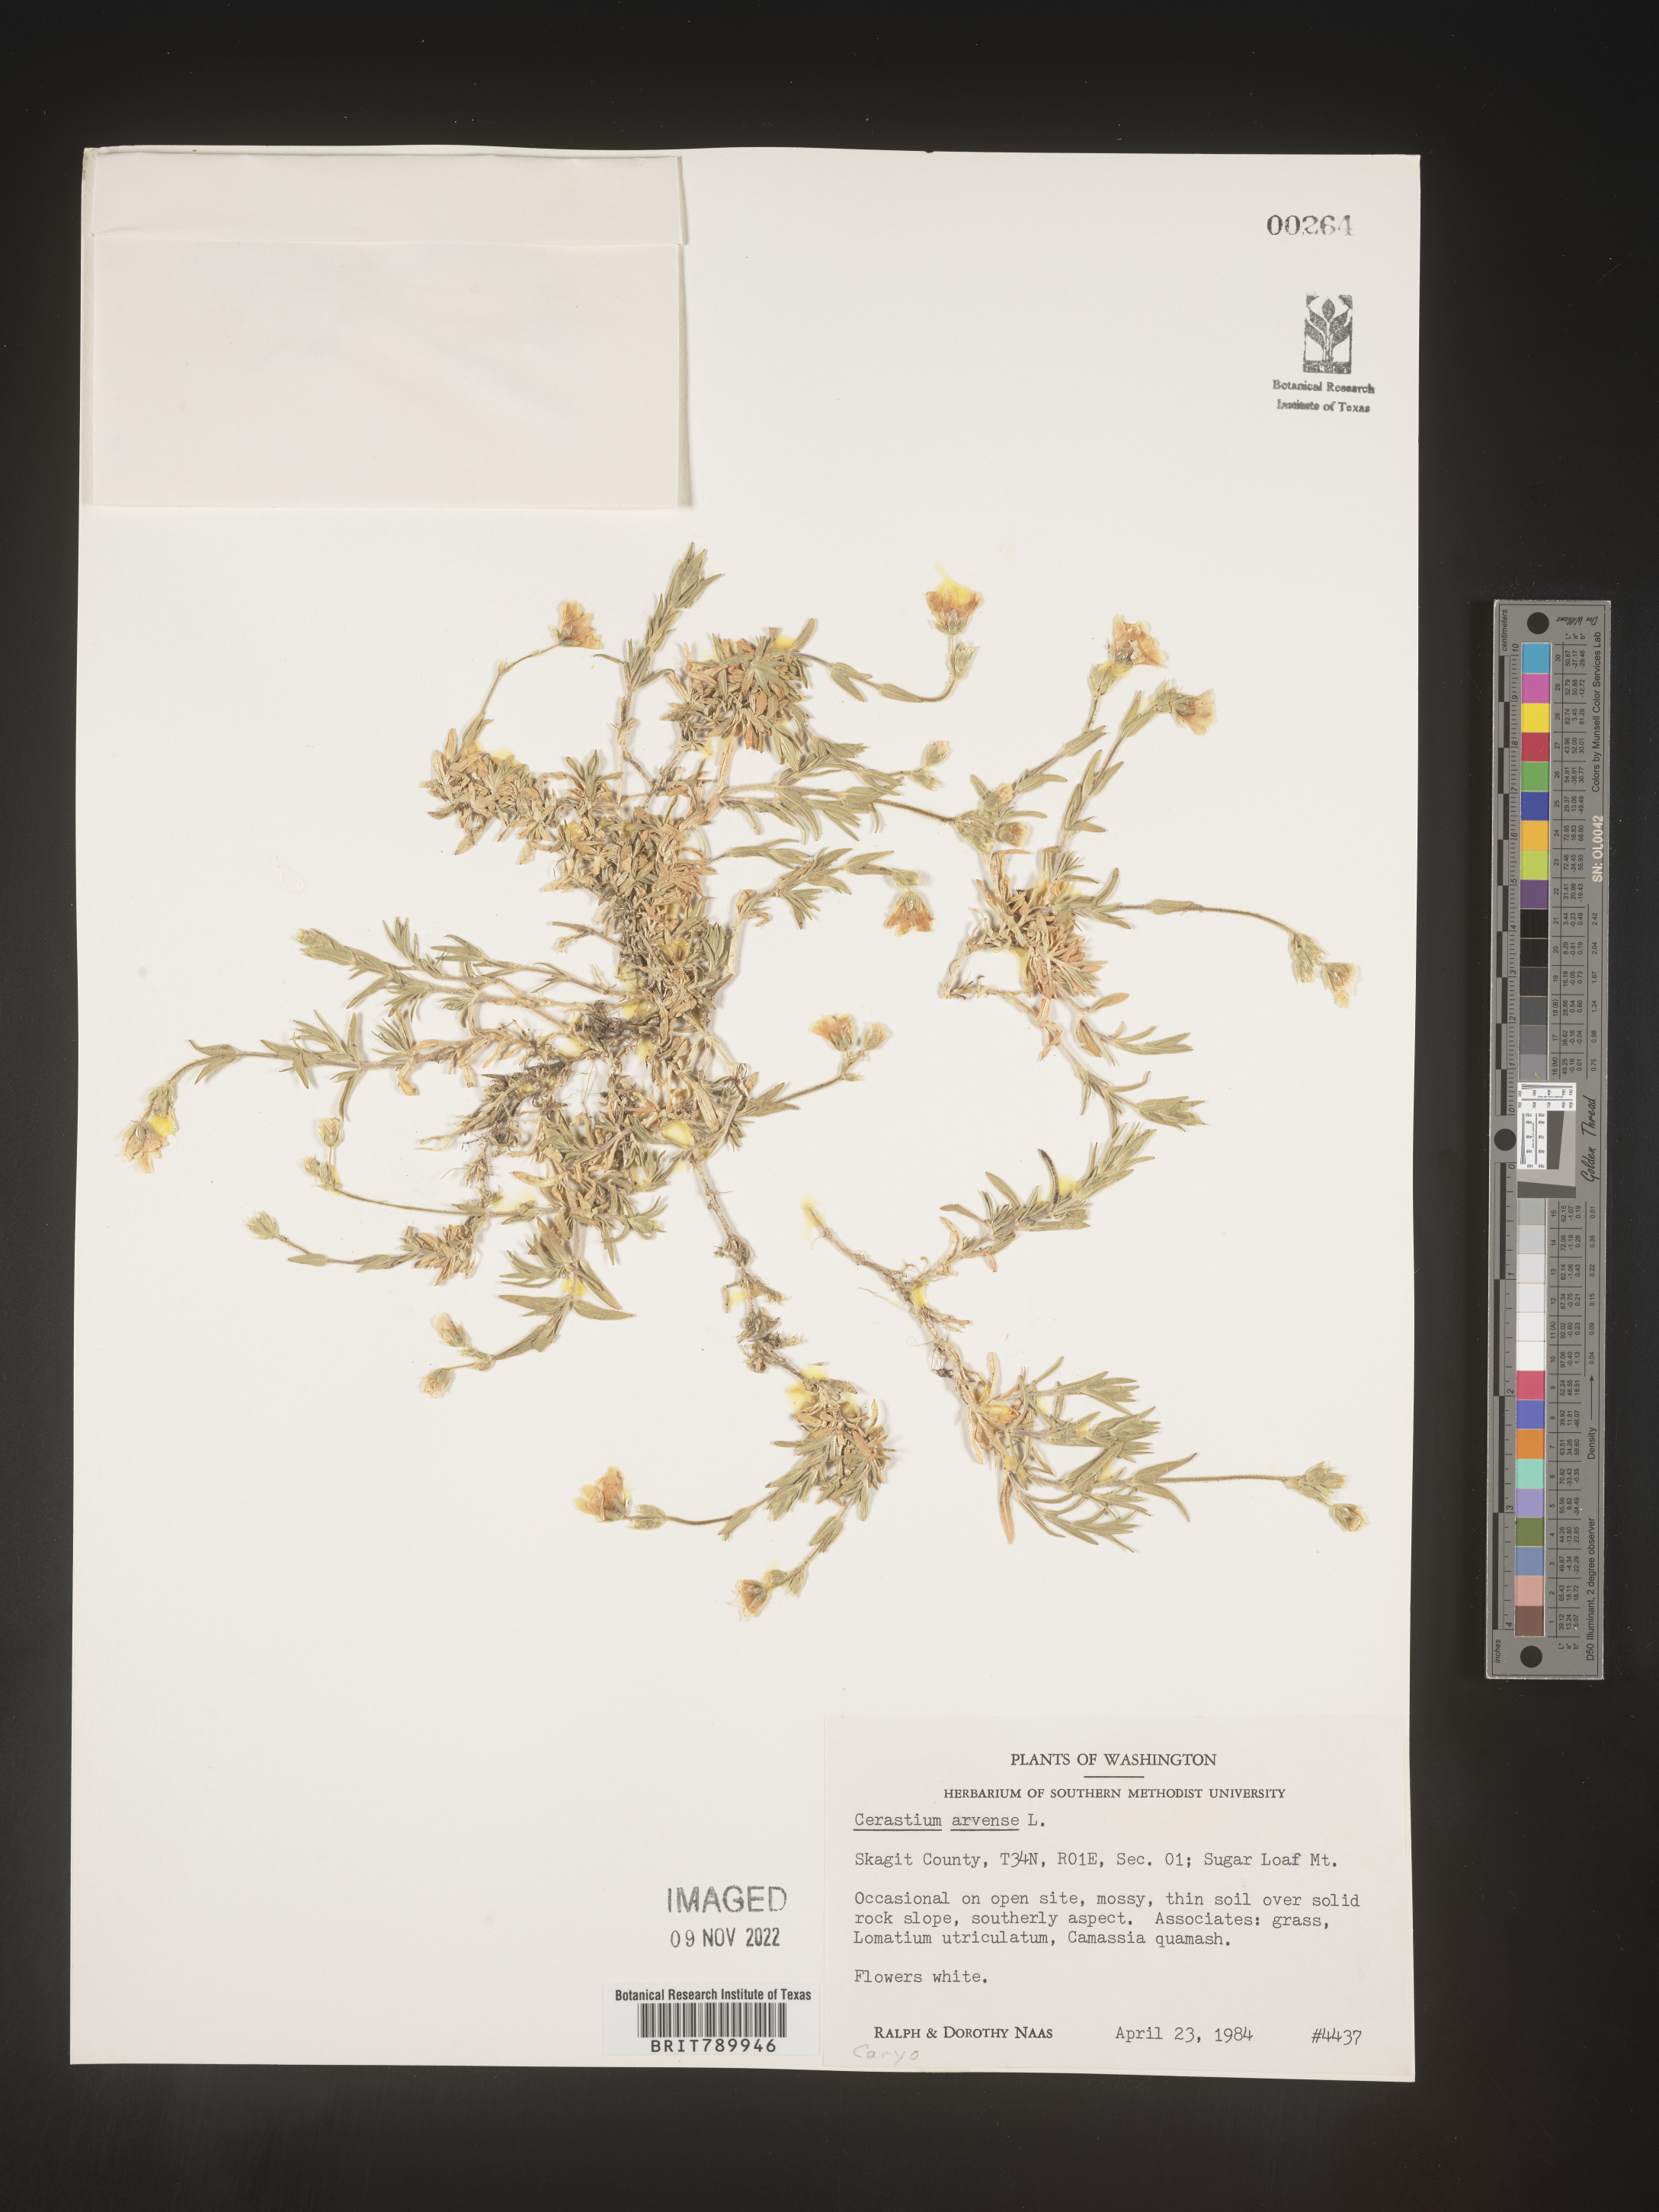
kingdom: Plantae
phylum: Tracheophyta
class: Magnoliopsida
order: Caryophyllales
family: Caryophyllaceae
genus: Cerastium
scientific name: Cerastium arvense
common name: Field mouse-ear
